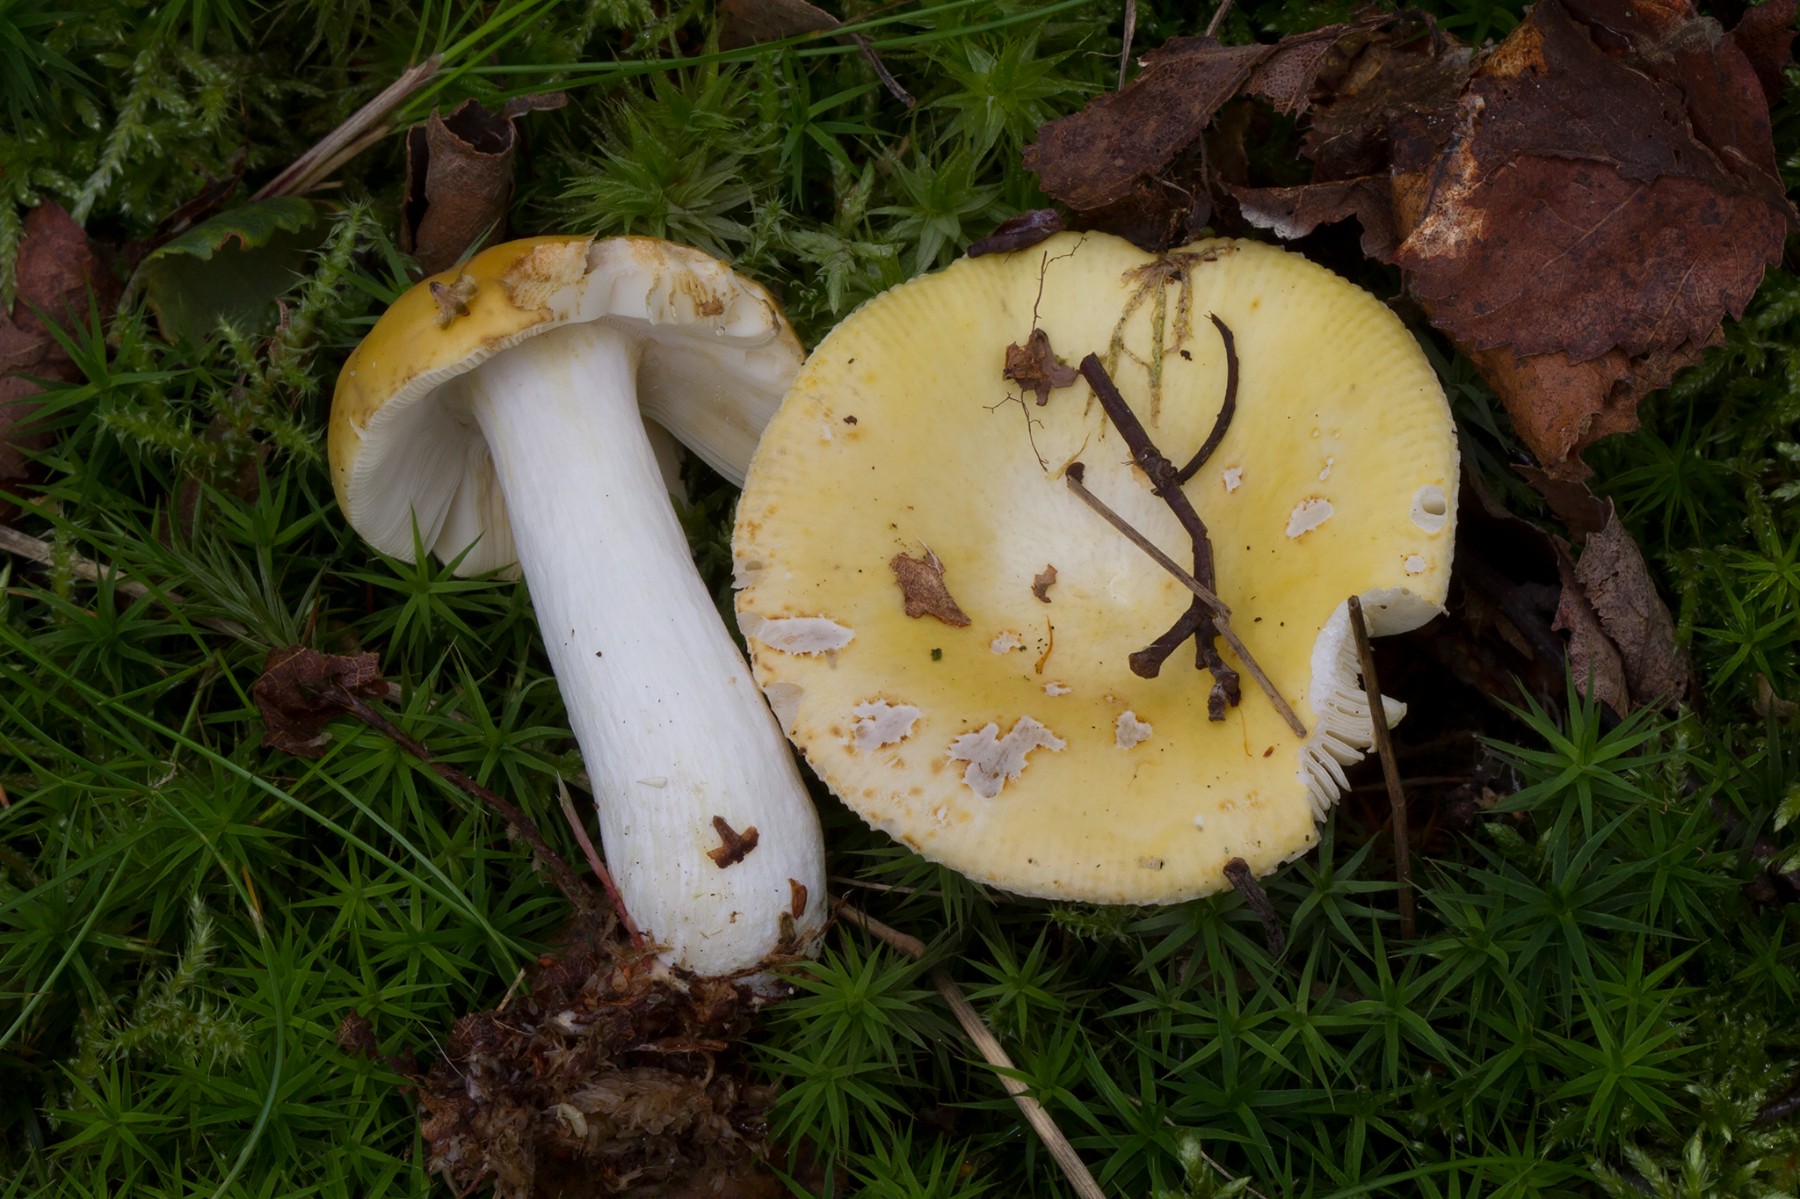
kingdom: Fungi
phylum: Basidiomycota
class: Agaricomycetes
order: Russulales
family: Russulaceae
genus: Russula
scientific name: Russula claroflava
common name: birke-skørhat
